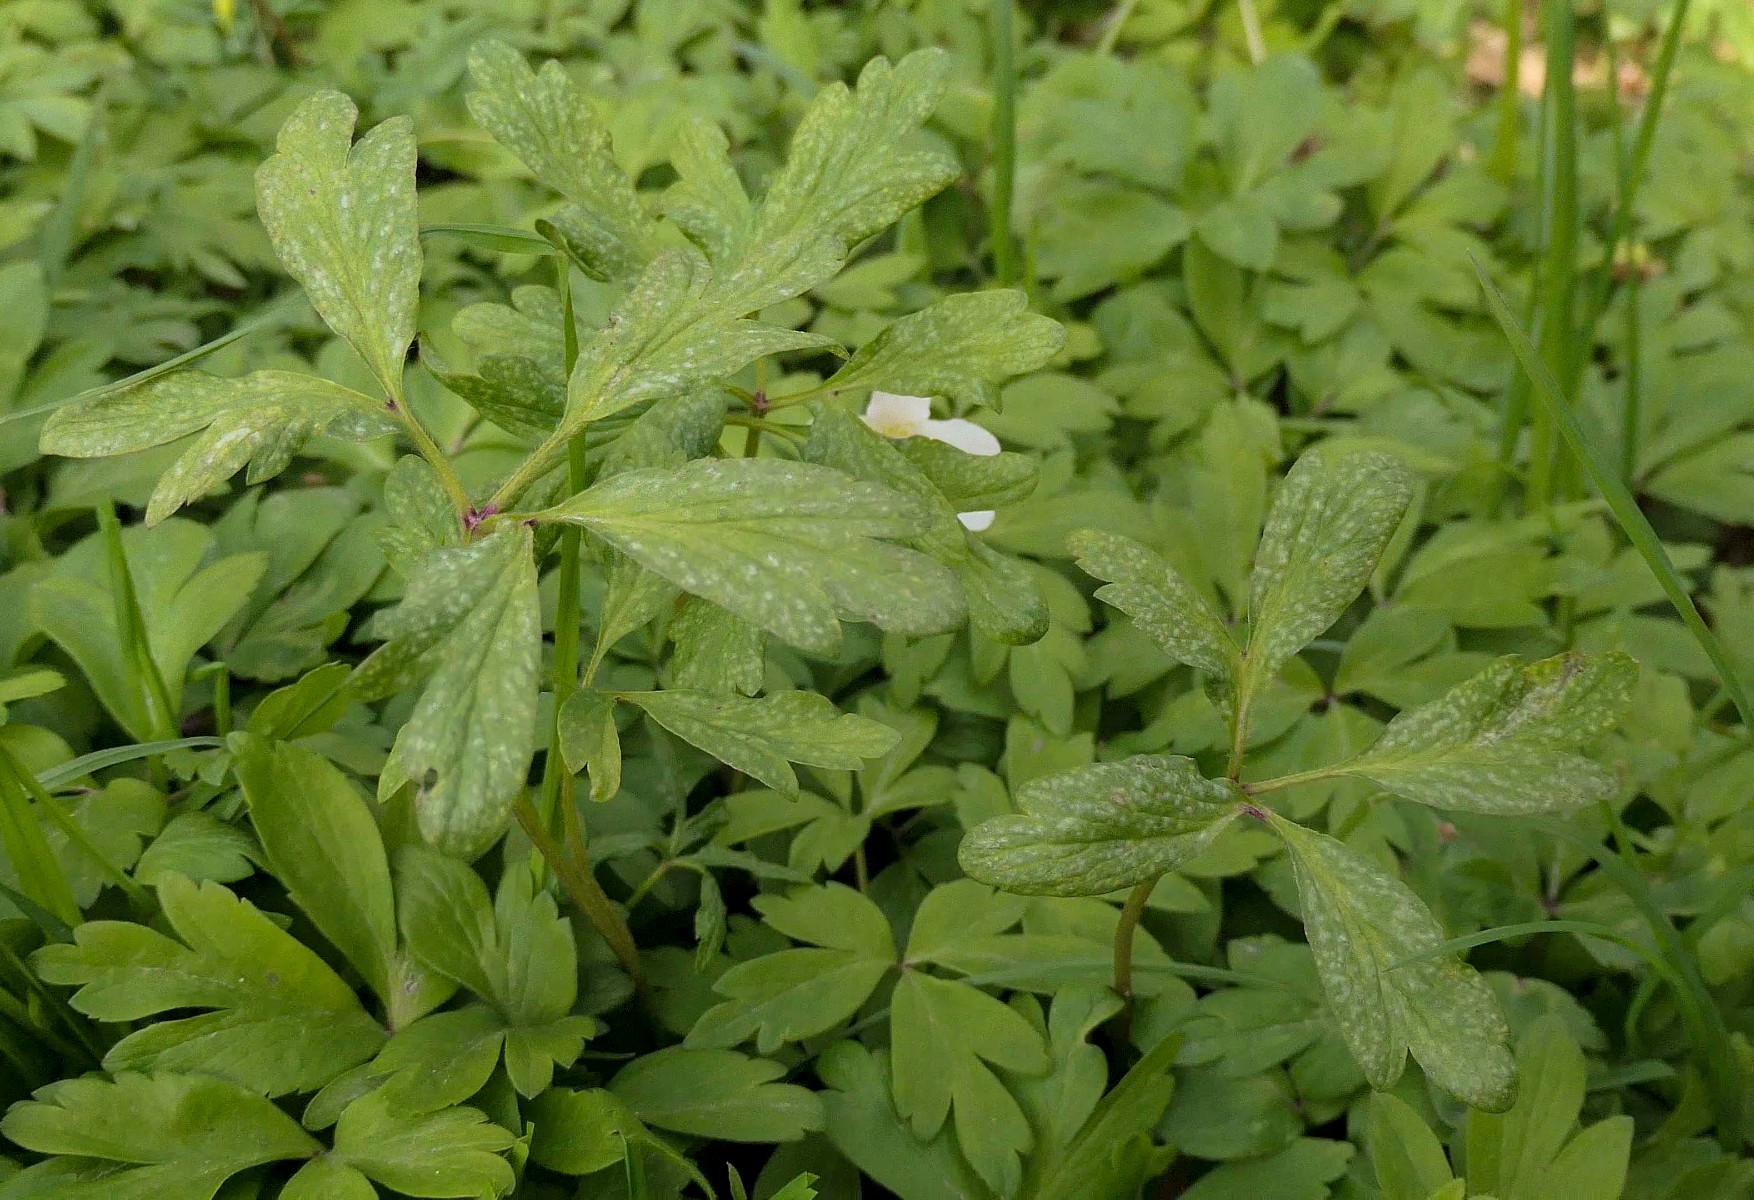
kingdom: Fungi
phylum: Basidiomycota
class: Pucciniomycetes
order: Pucciniales
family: Ochropsoraceae
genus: Ochropsora
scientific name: Ochropsora ariae
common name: anemone-okkerpletrust
